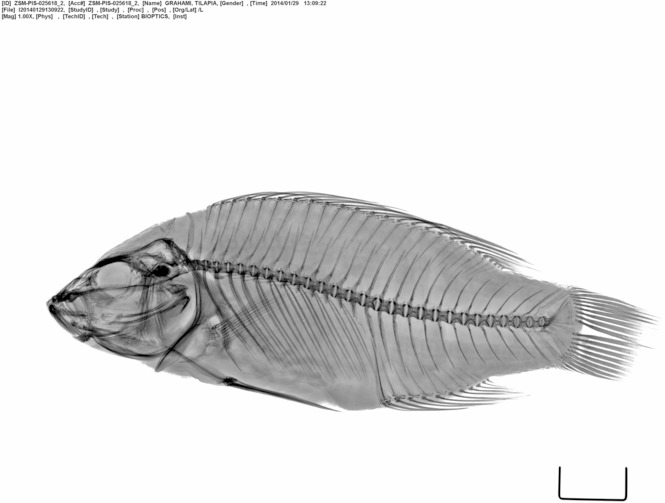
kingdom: Animalia
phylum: Chordata
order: Perciformes
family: Cichlidae
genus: Alcolapia
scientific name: Alcolapia grahami
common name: Lake magadi tilapia
